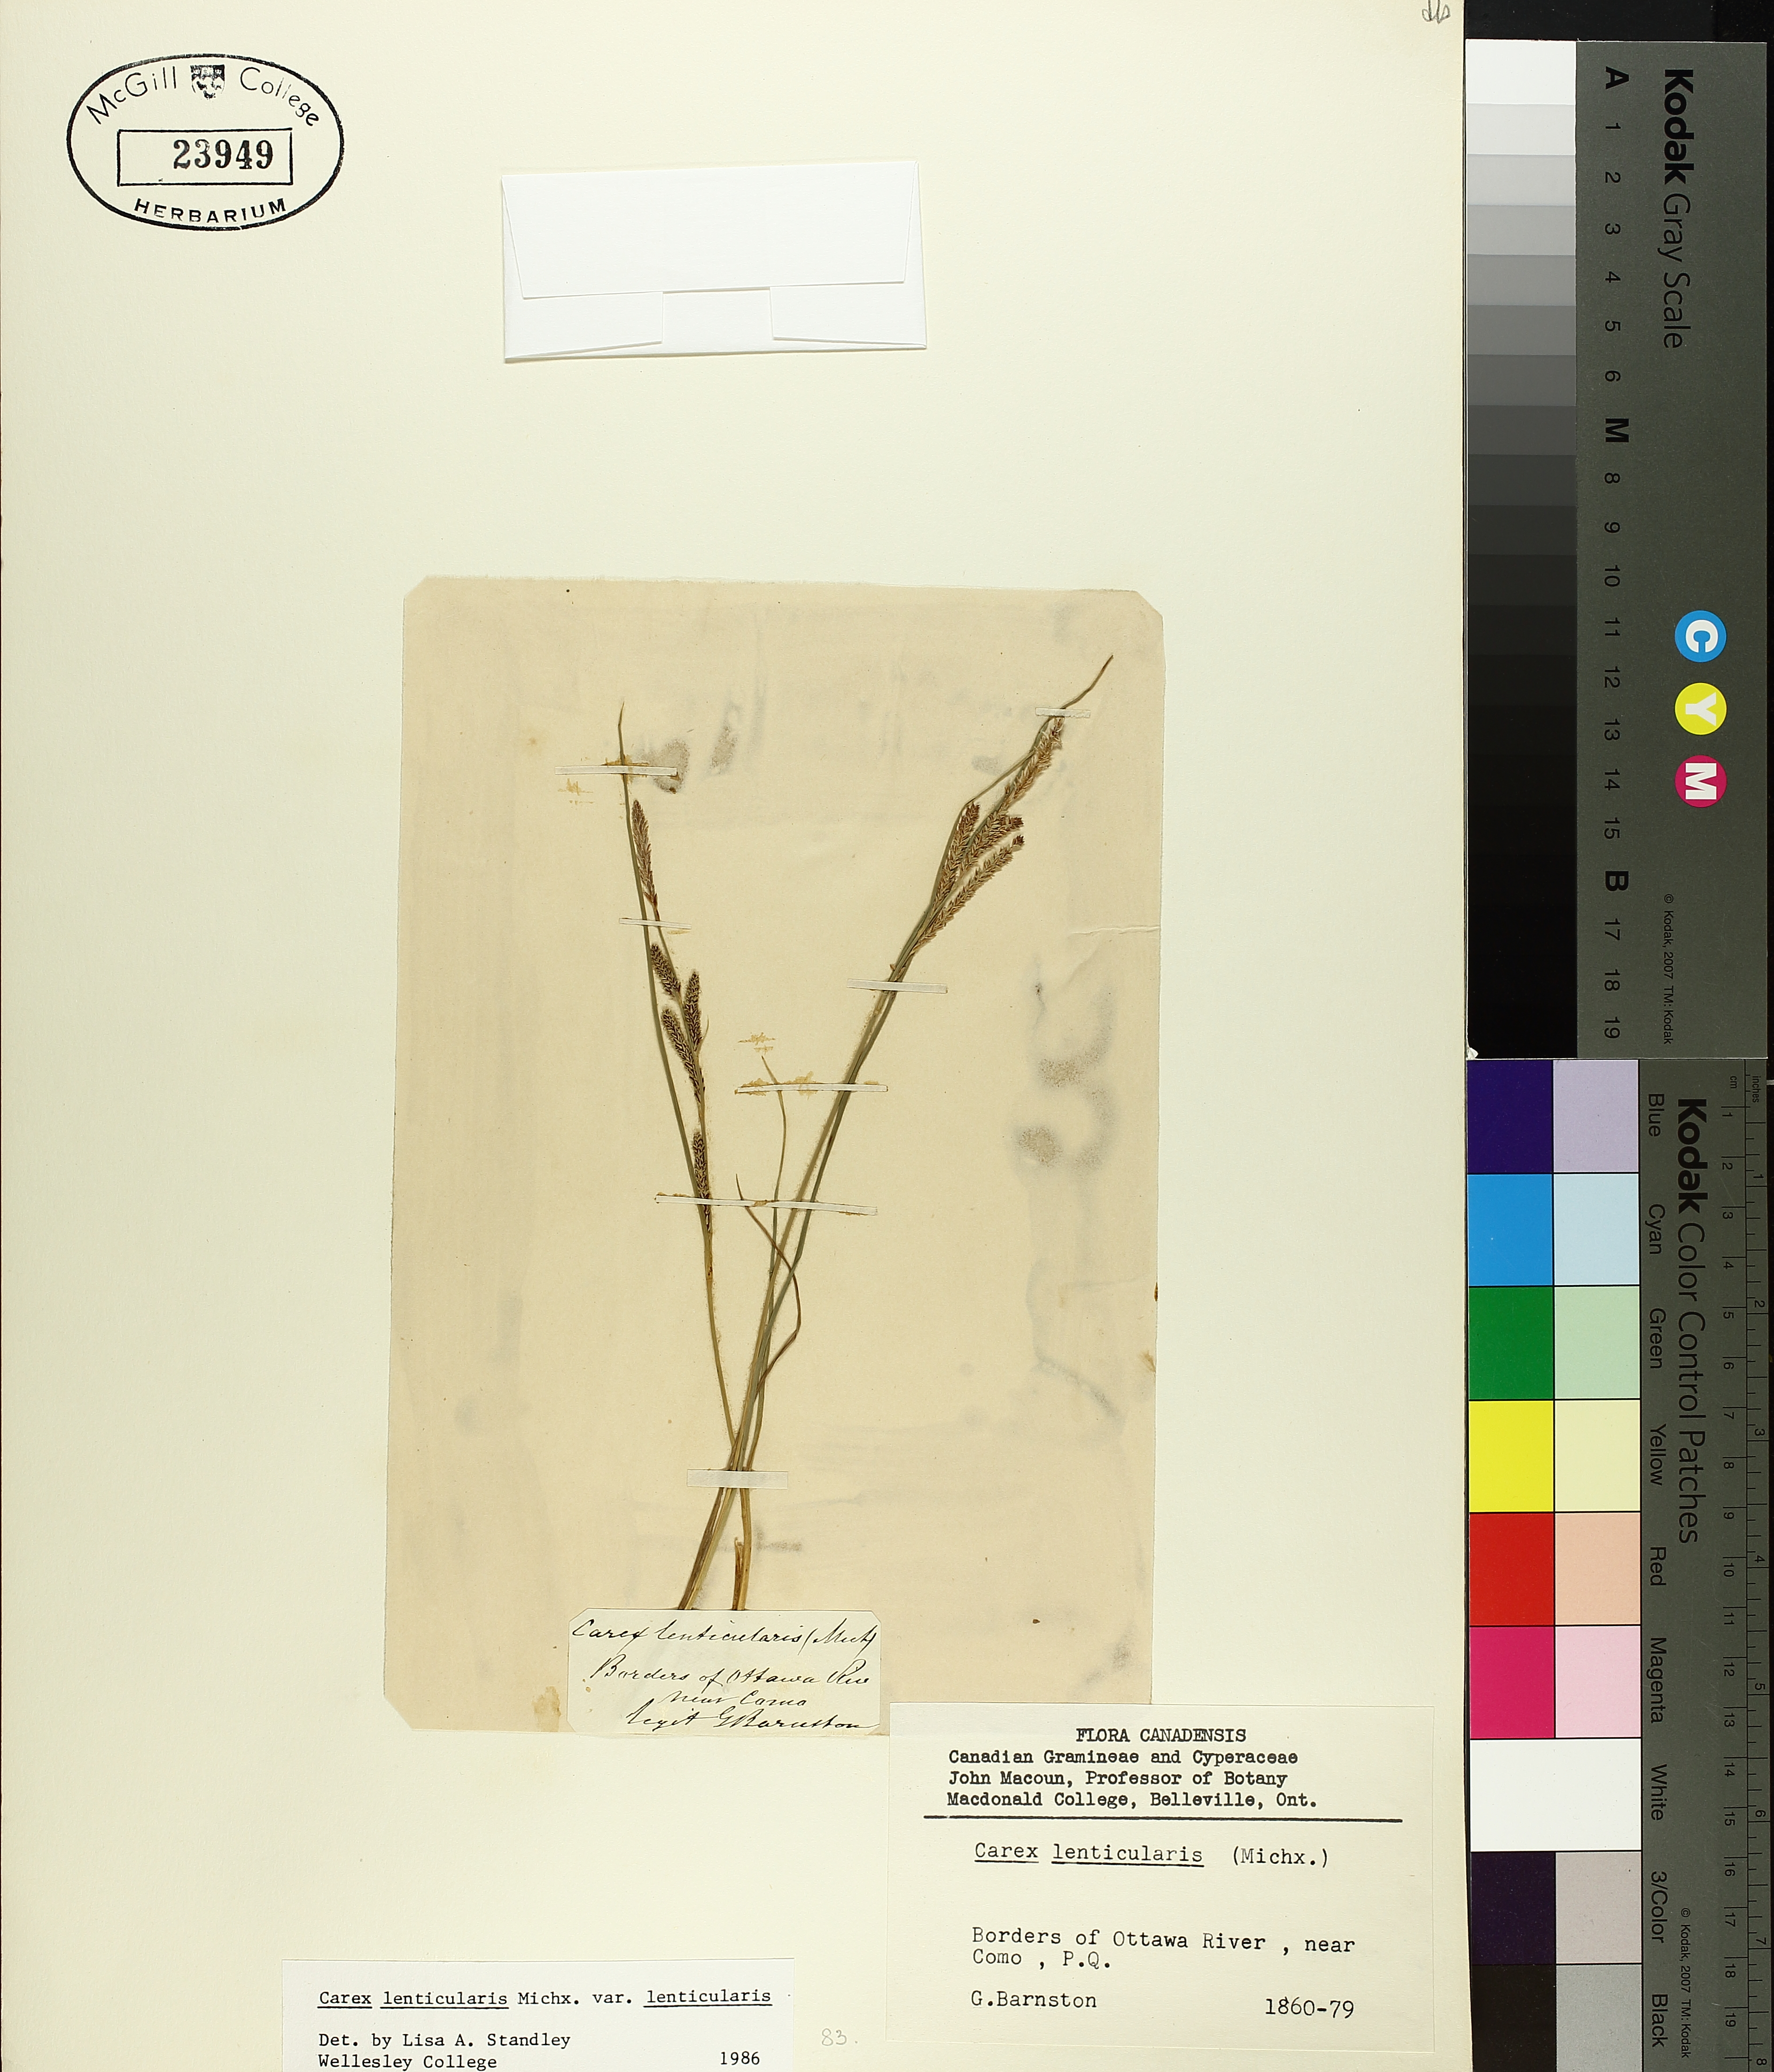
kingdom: Plantae
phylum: Tracheophyta
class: Liliopsida
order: Poales
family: Cyperaceae
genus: Carex
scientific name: Carex lenticularis
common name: Lakeshore sedge
